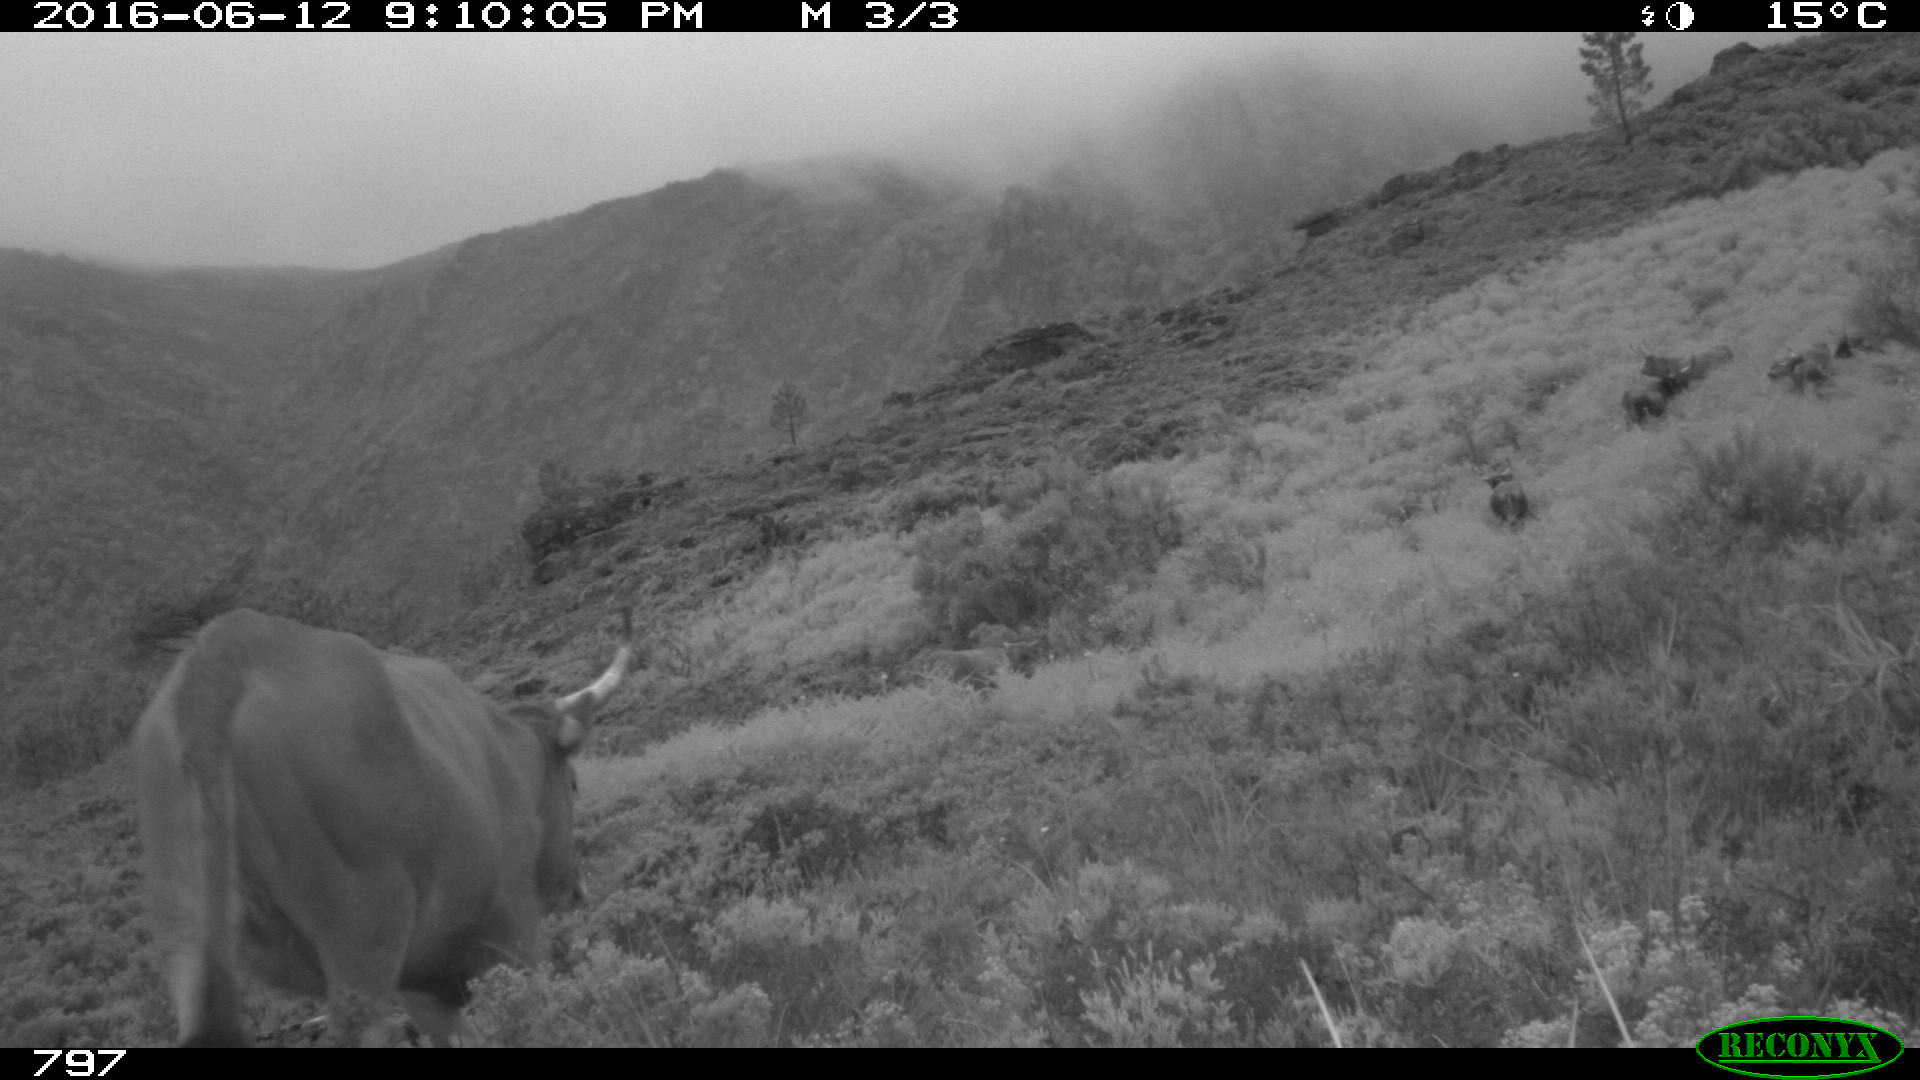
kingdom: Animalia
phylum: Chordata
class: Mammalia
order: Artiodactyla
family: Bovidae
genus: Bos
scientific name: Bos taurus
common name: Domesticated cattle
